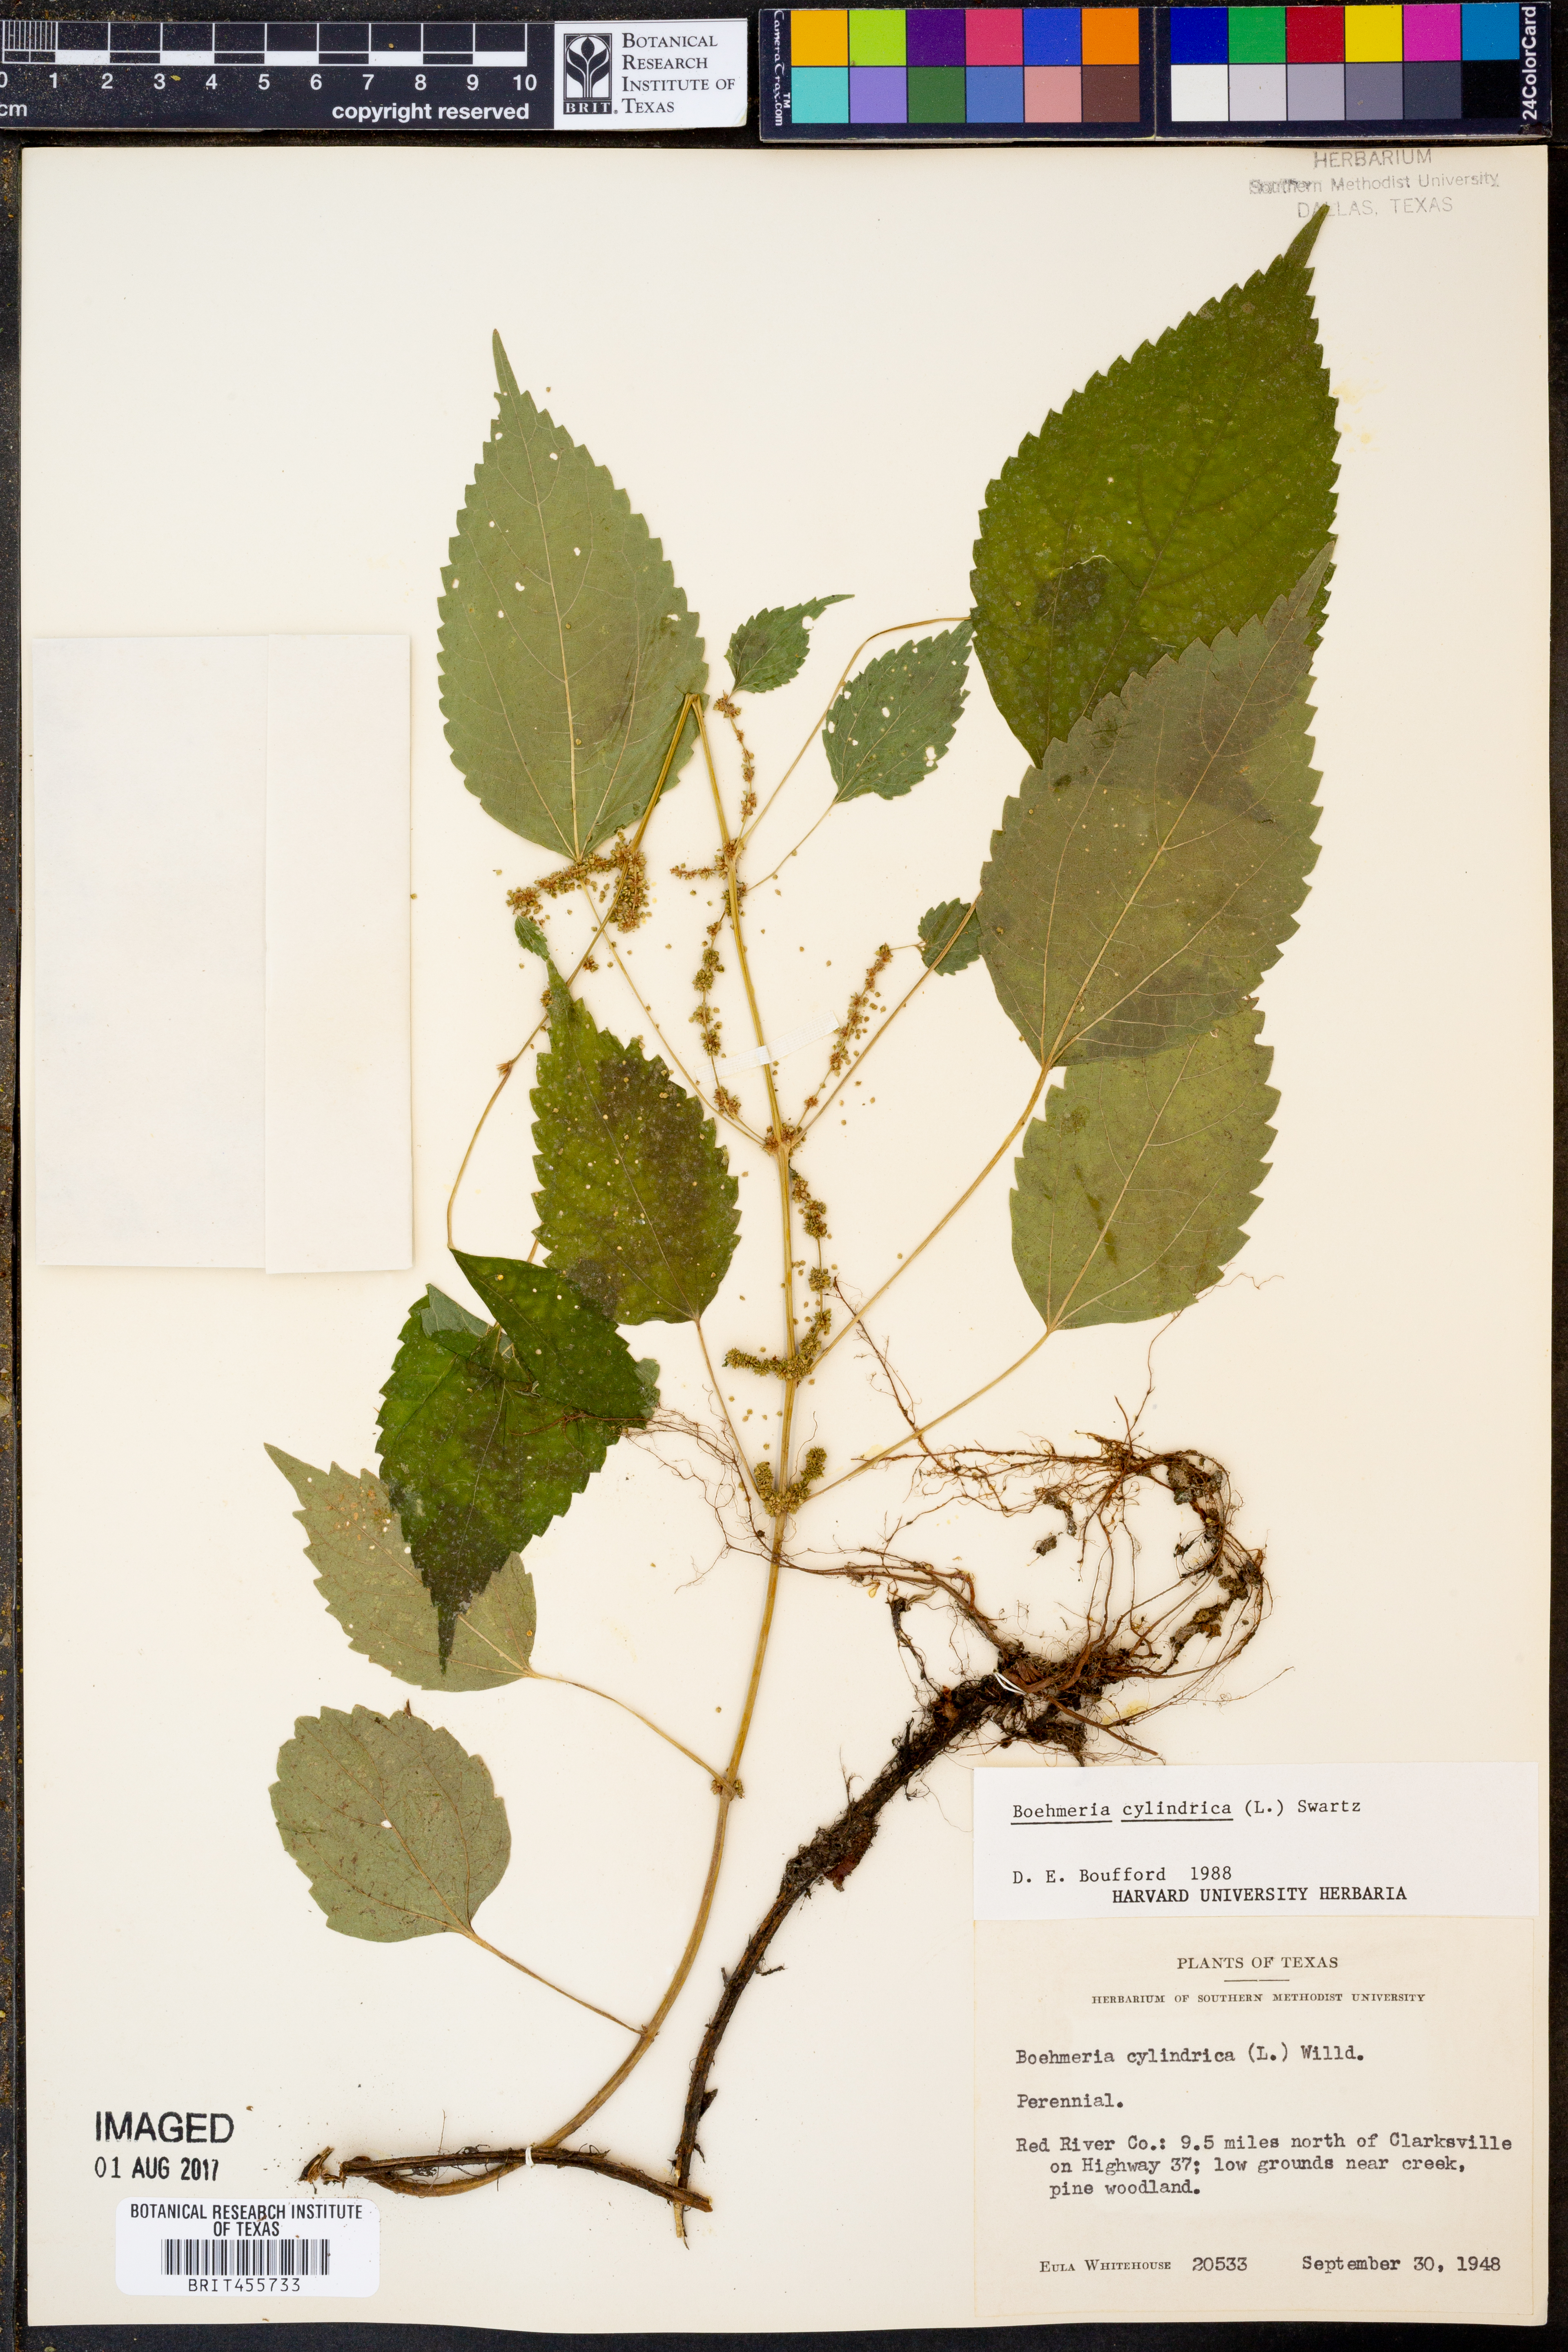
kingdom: Plantae
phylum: Tracheophyta
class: Magnoliopsida
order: Rosales
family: Urticaceae
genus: Boehmeria
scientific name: Boehmeria cylindrica
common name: Bog-hemp
